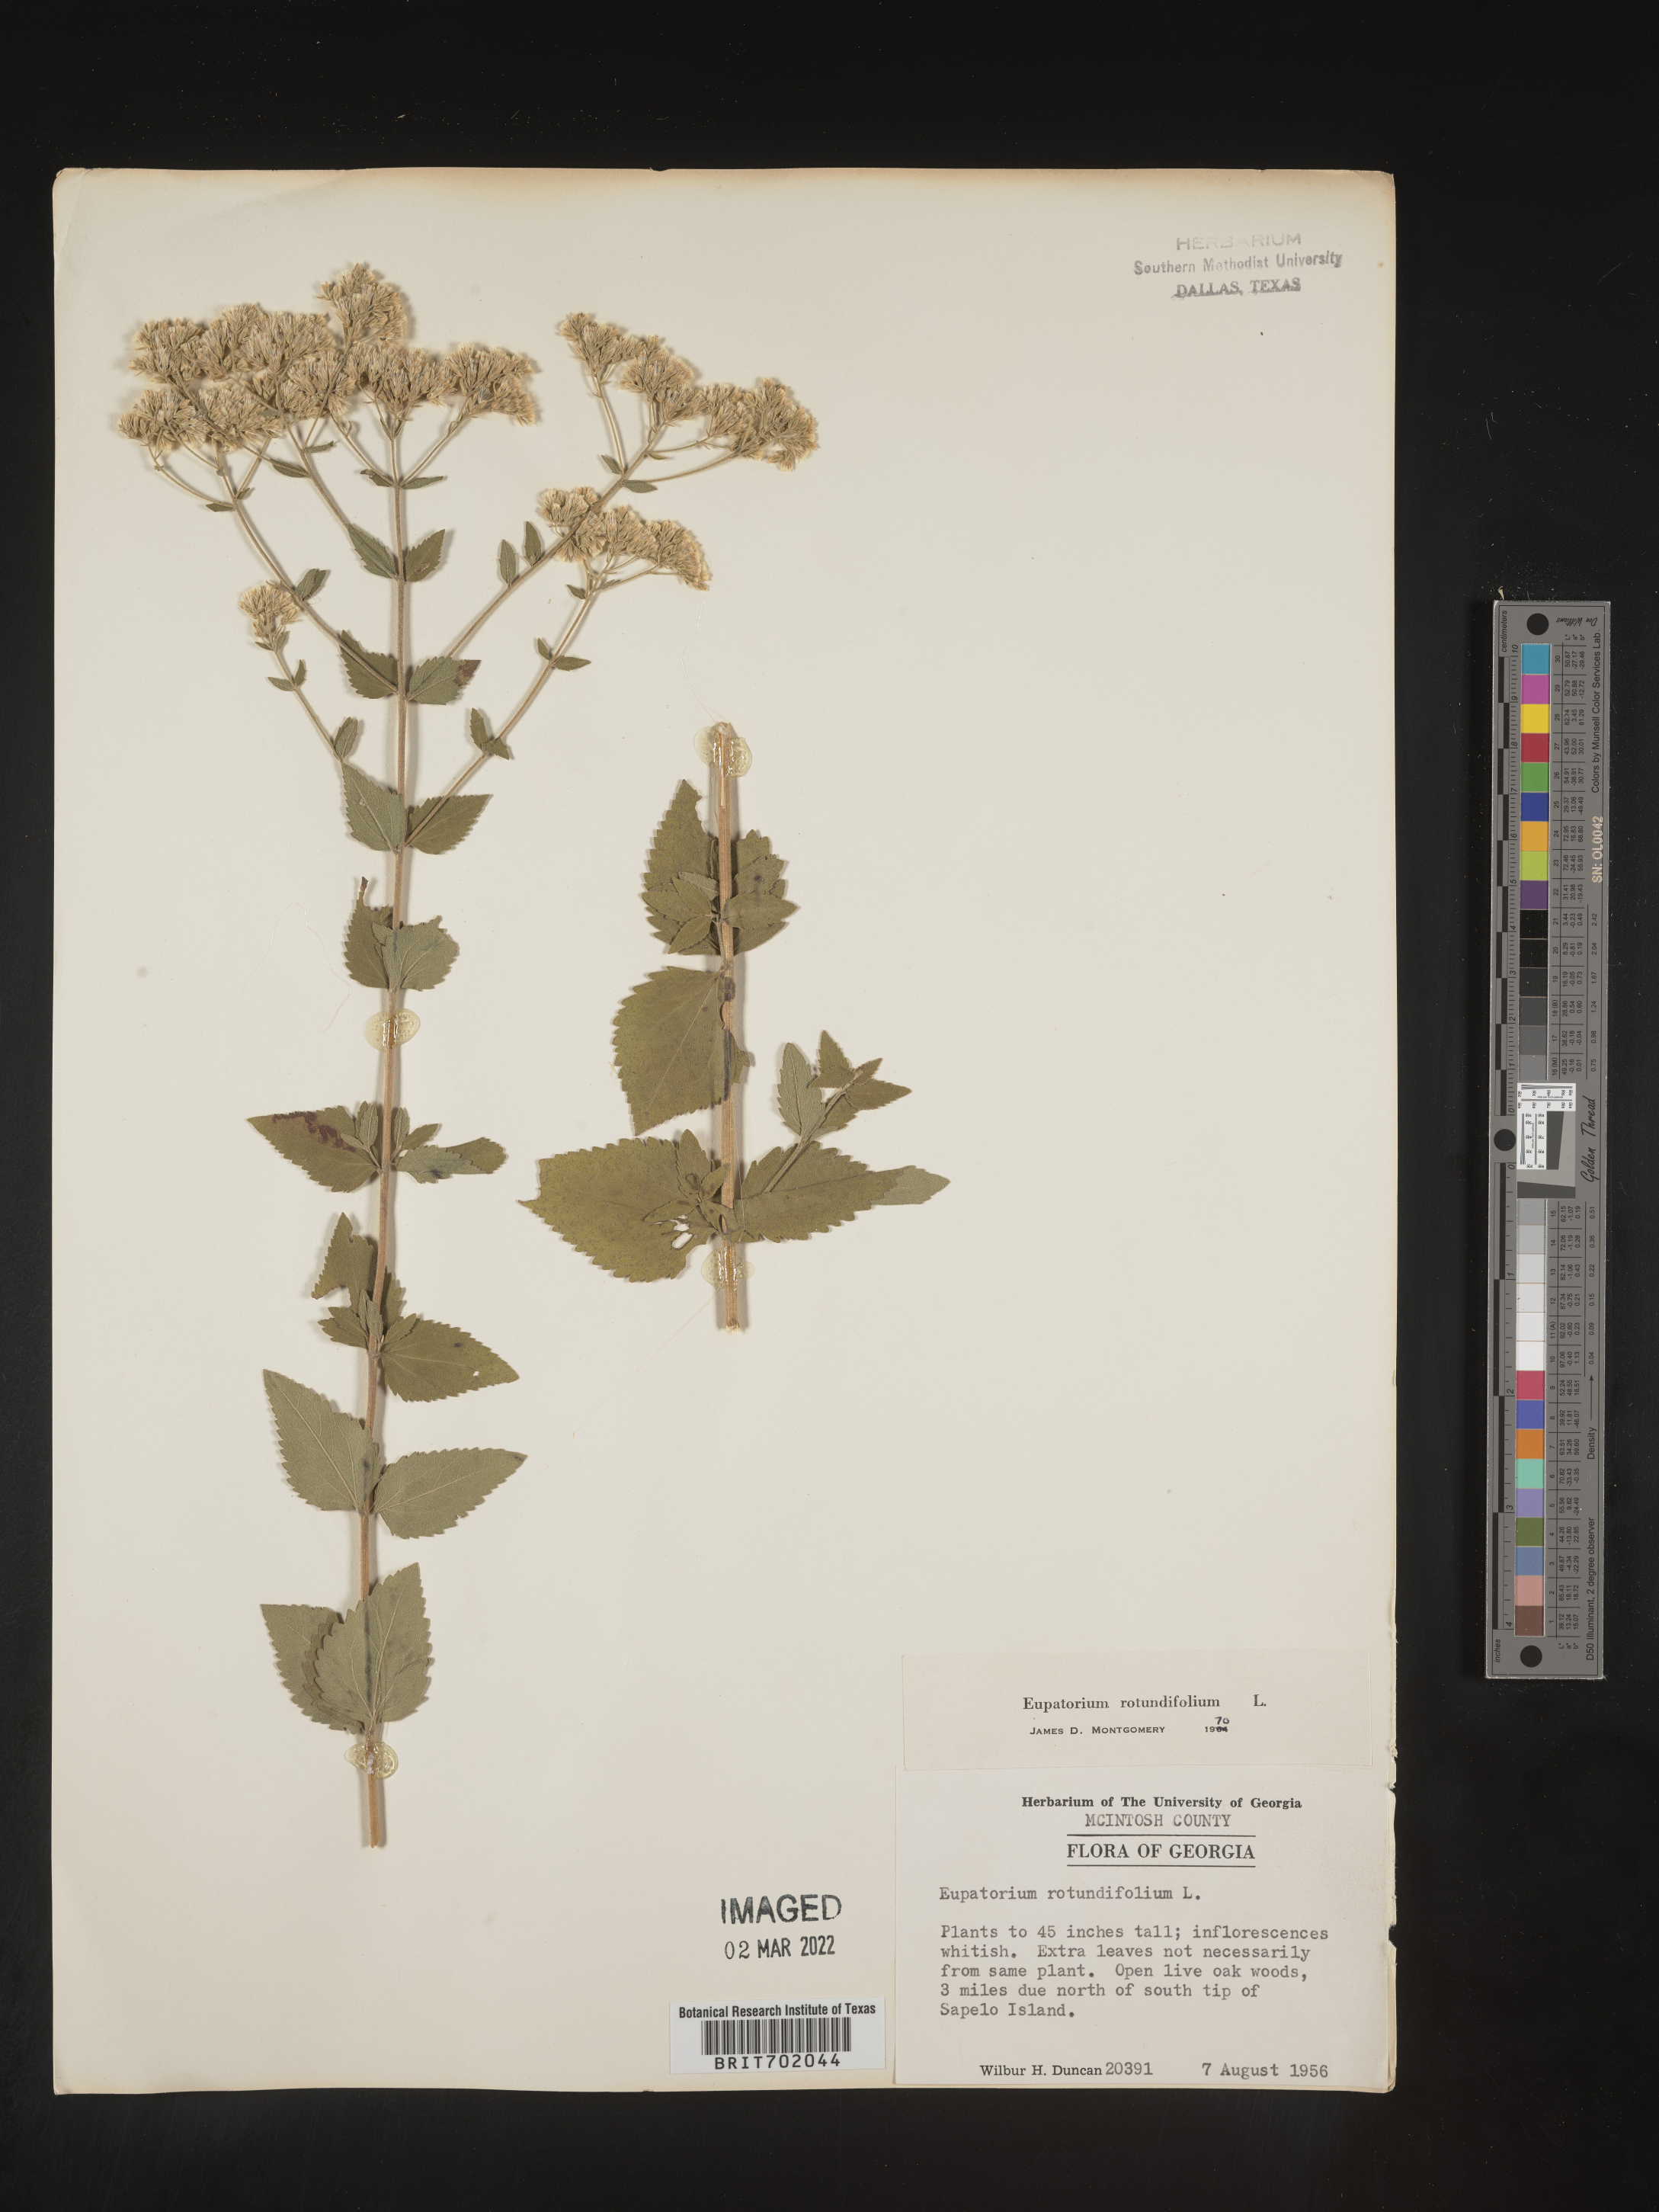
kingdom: Plantae
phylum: Tracheophyta
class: Magnoliopsida
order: Asterales
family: Asteraceae
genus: Eupatorium
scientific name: Eupatorium rotundifolium
